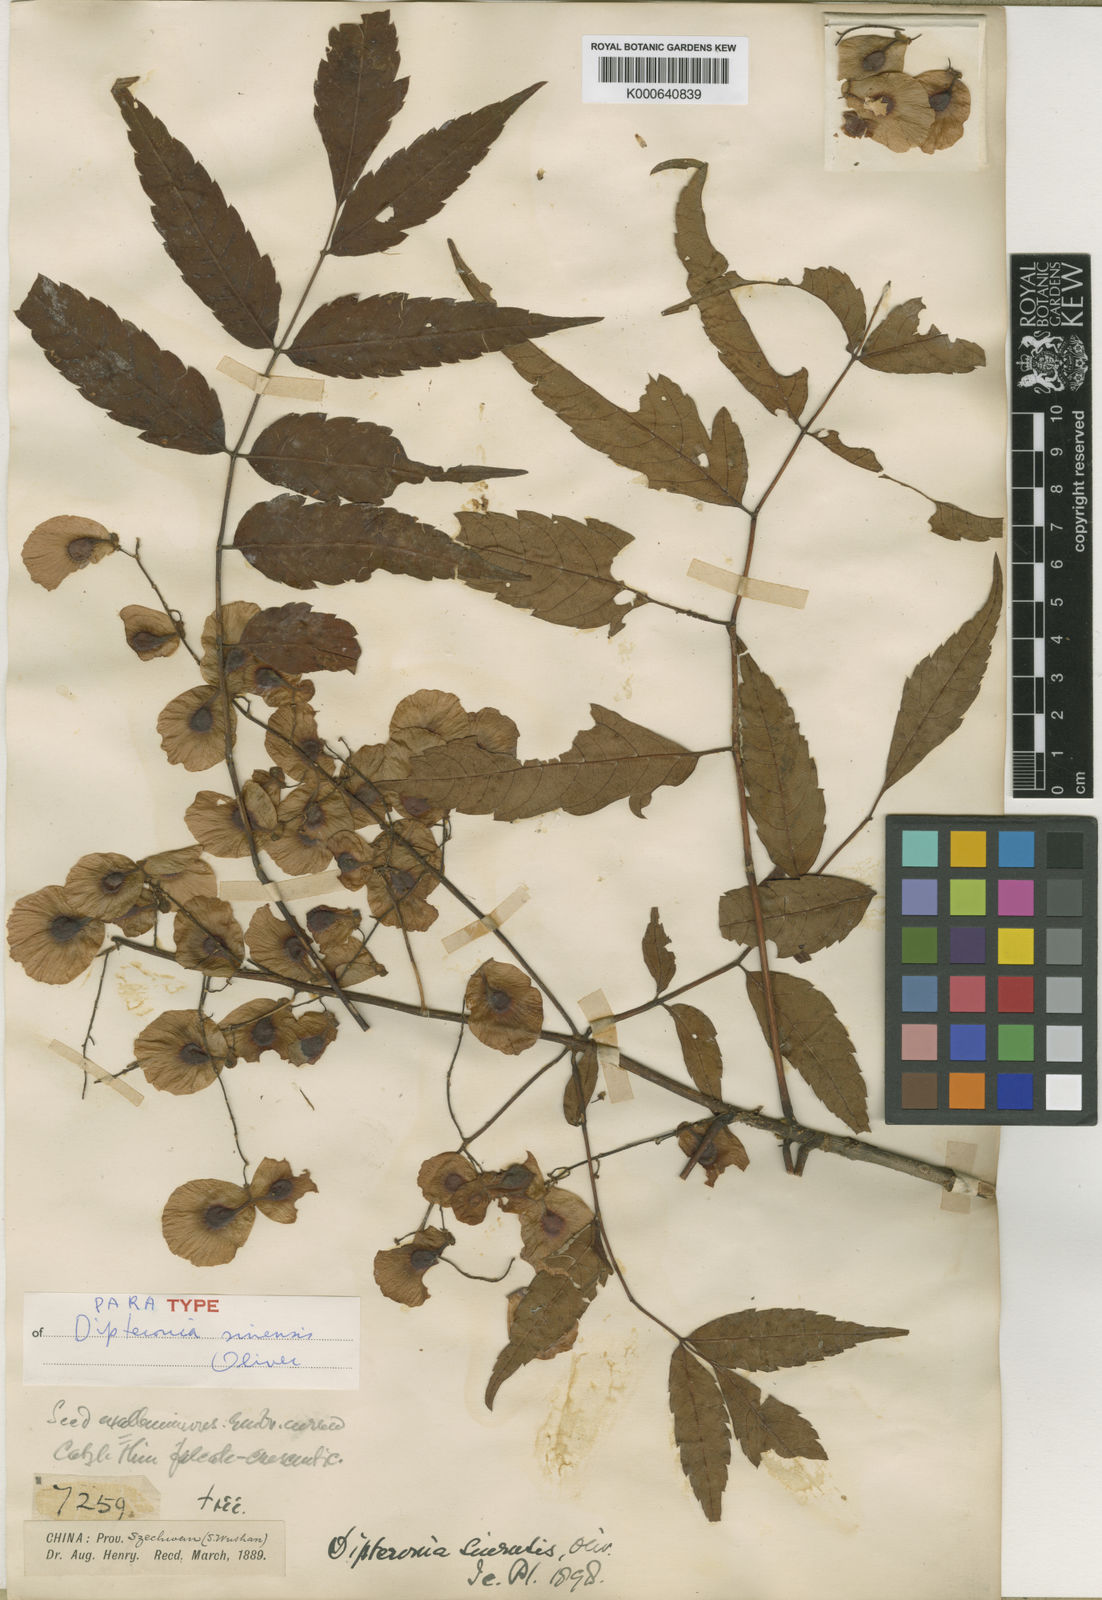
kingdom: Plantae
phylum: Tracheophyta
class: Magnoliopsida
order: Sapindales
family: Sapindaceae
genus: Dipteronia
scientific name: Dipteronia dyeriana
